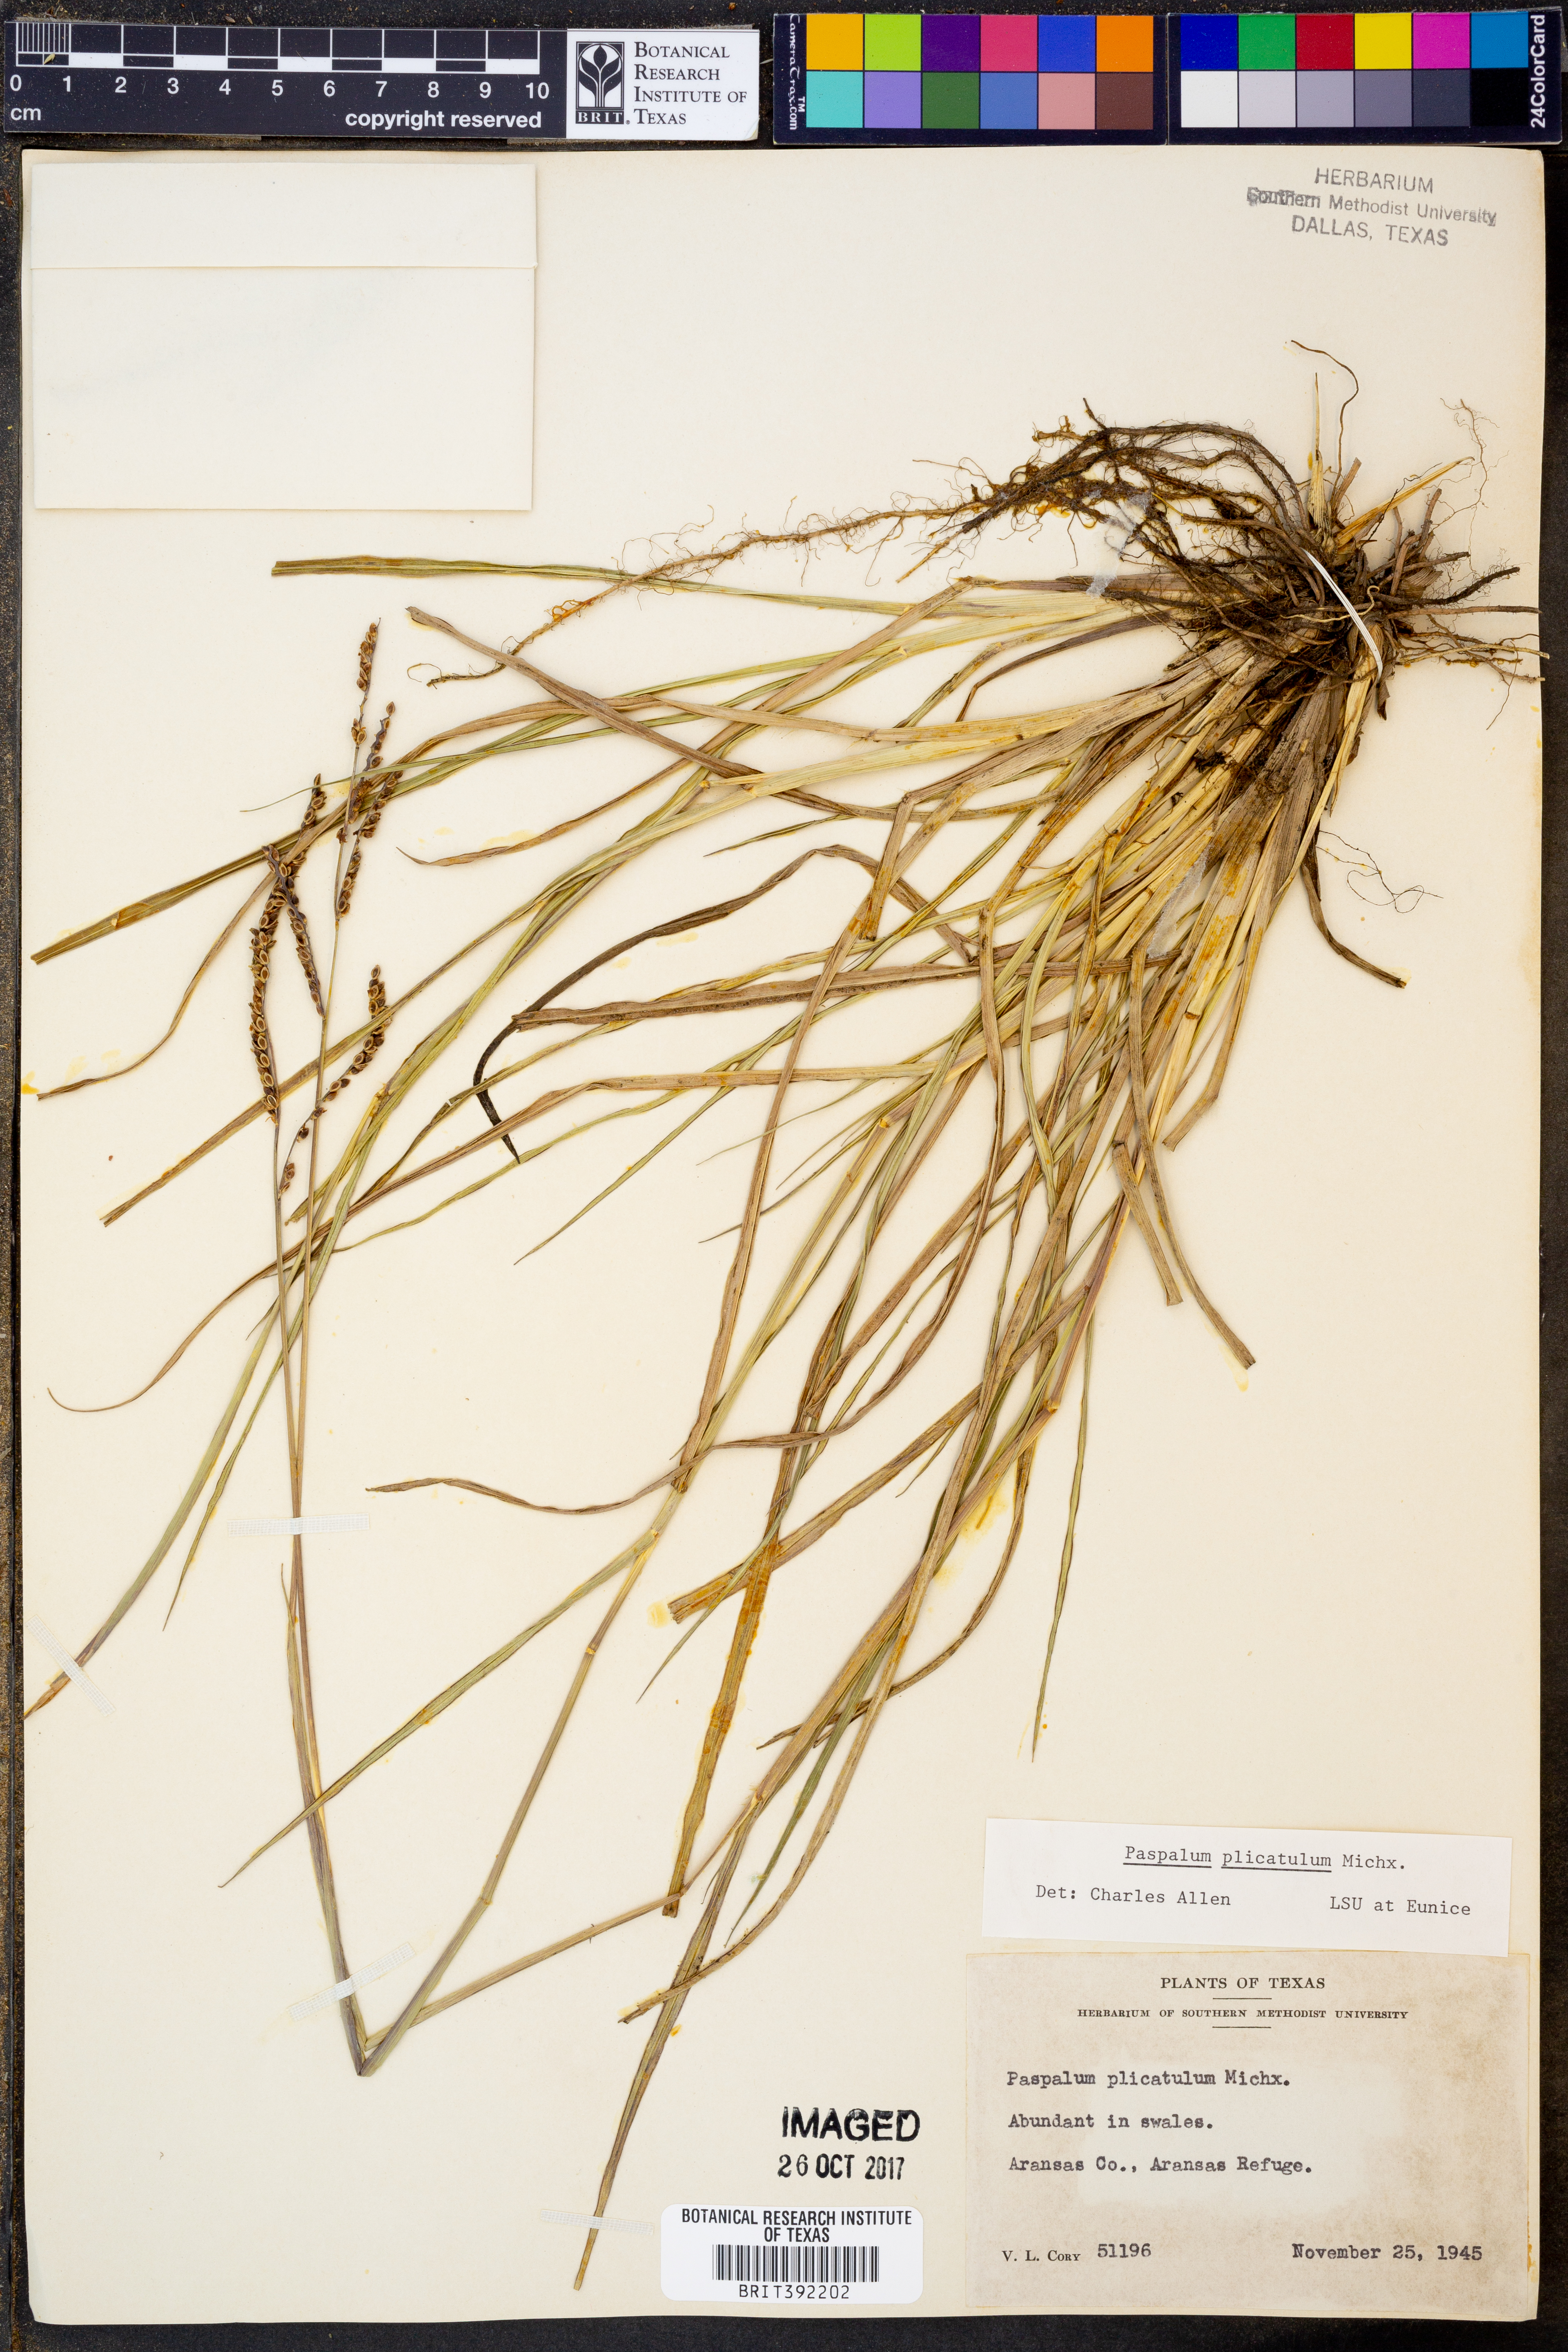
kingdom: Plantae
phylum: Tracheophyta
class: Liliopsida
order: Poales
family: Poaceae
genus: Paspalum
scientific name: Paspalum plicatulum
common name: Top paspalum
